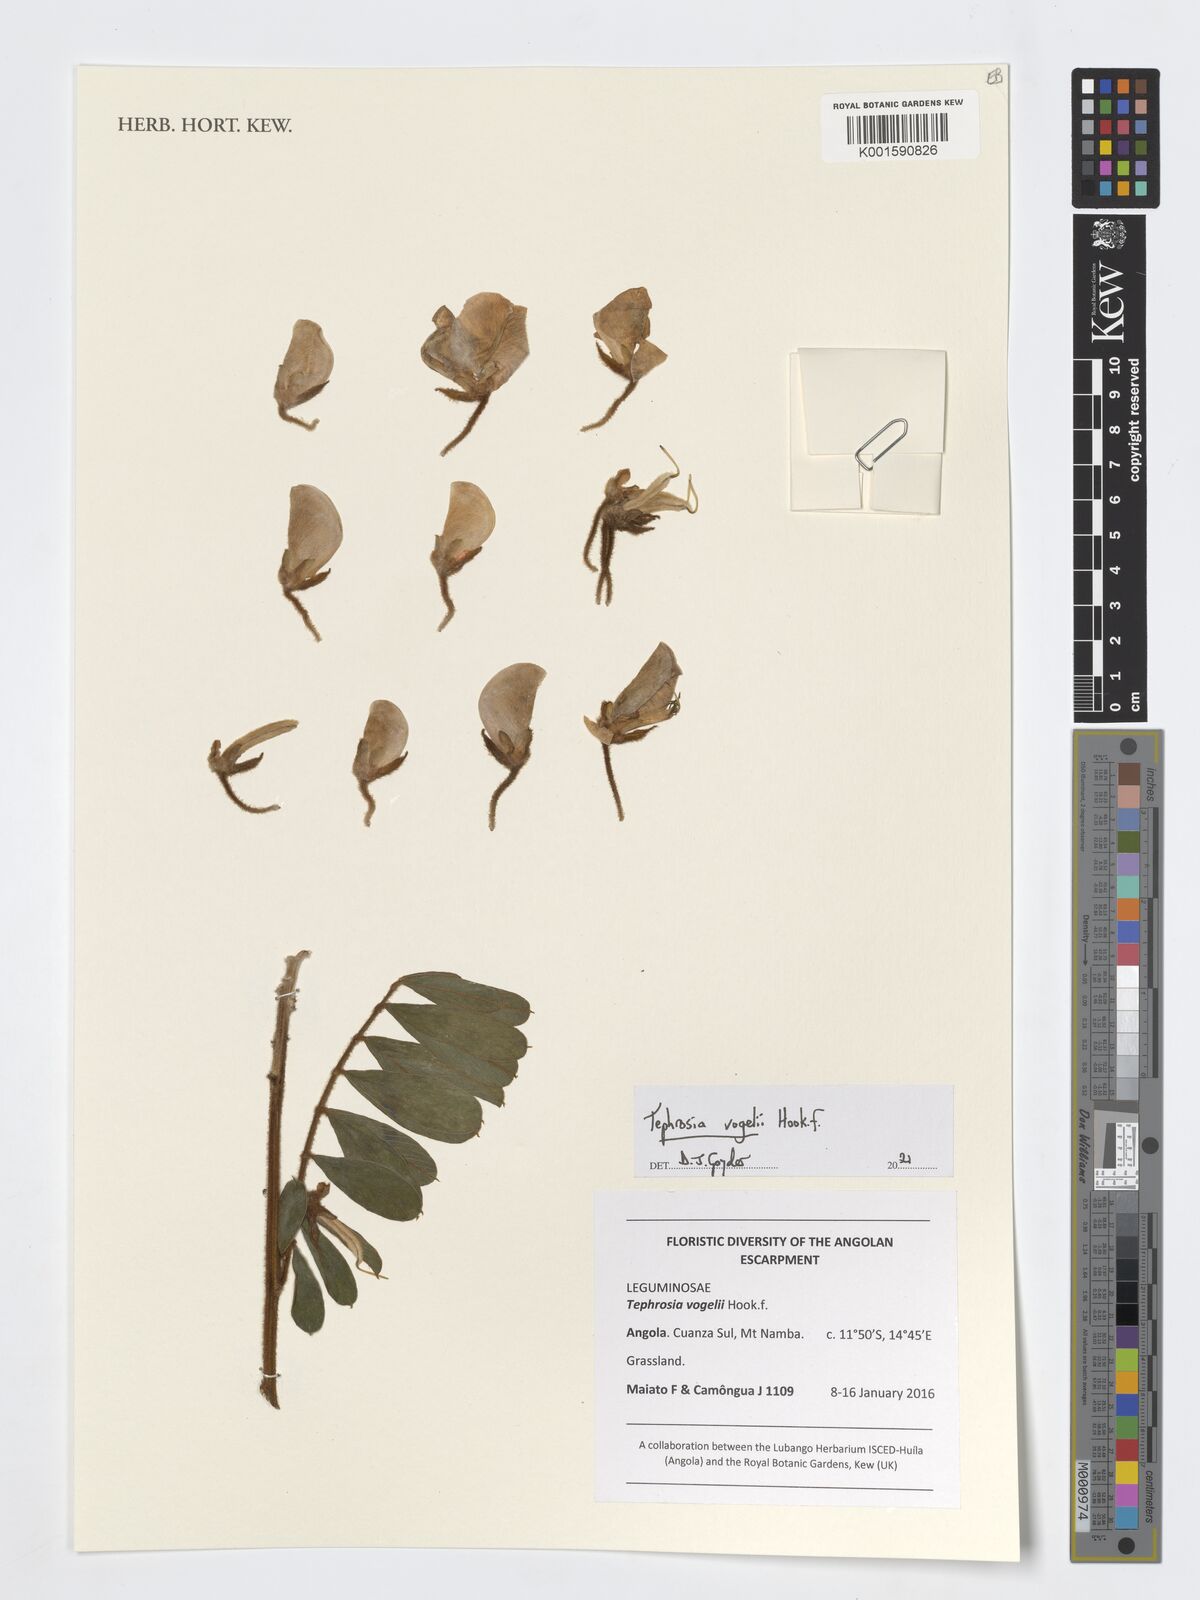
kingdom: Plantae
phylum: Tracheophyta
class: Magnoliopsida
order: Fabales
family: Fabaceae
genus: Tephrosia
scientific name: Tephrosia vogelii
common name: Vogel tephrosia
